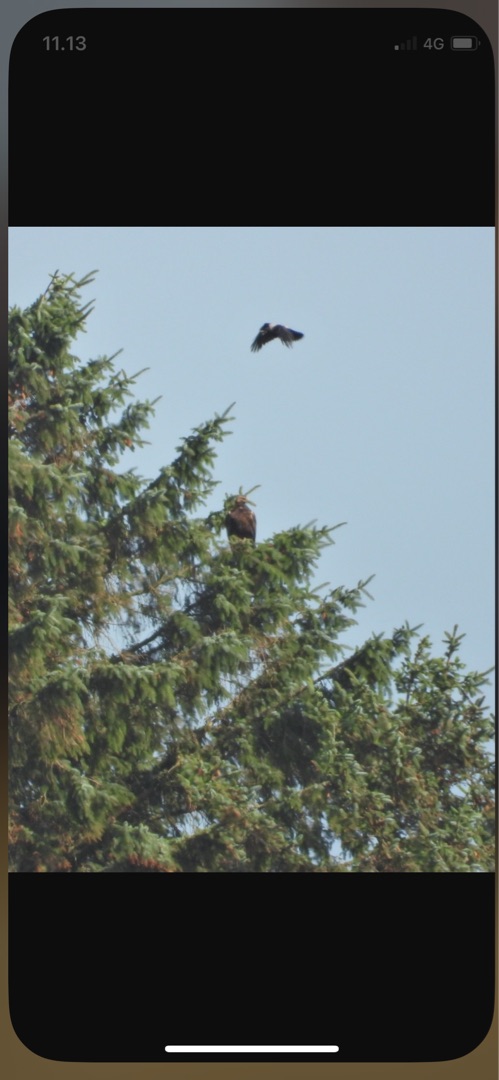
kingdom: Animalia
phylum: Chordata
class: Aves
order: Accipitriformes
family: Accipitridae
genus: Aquila
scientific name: Aquila chrysaetos
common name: Kongeørn
